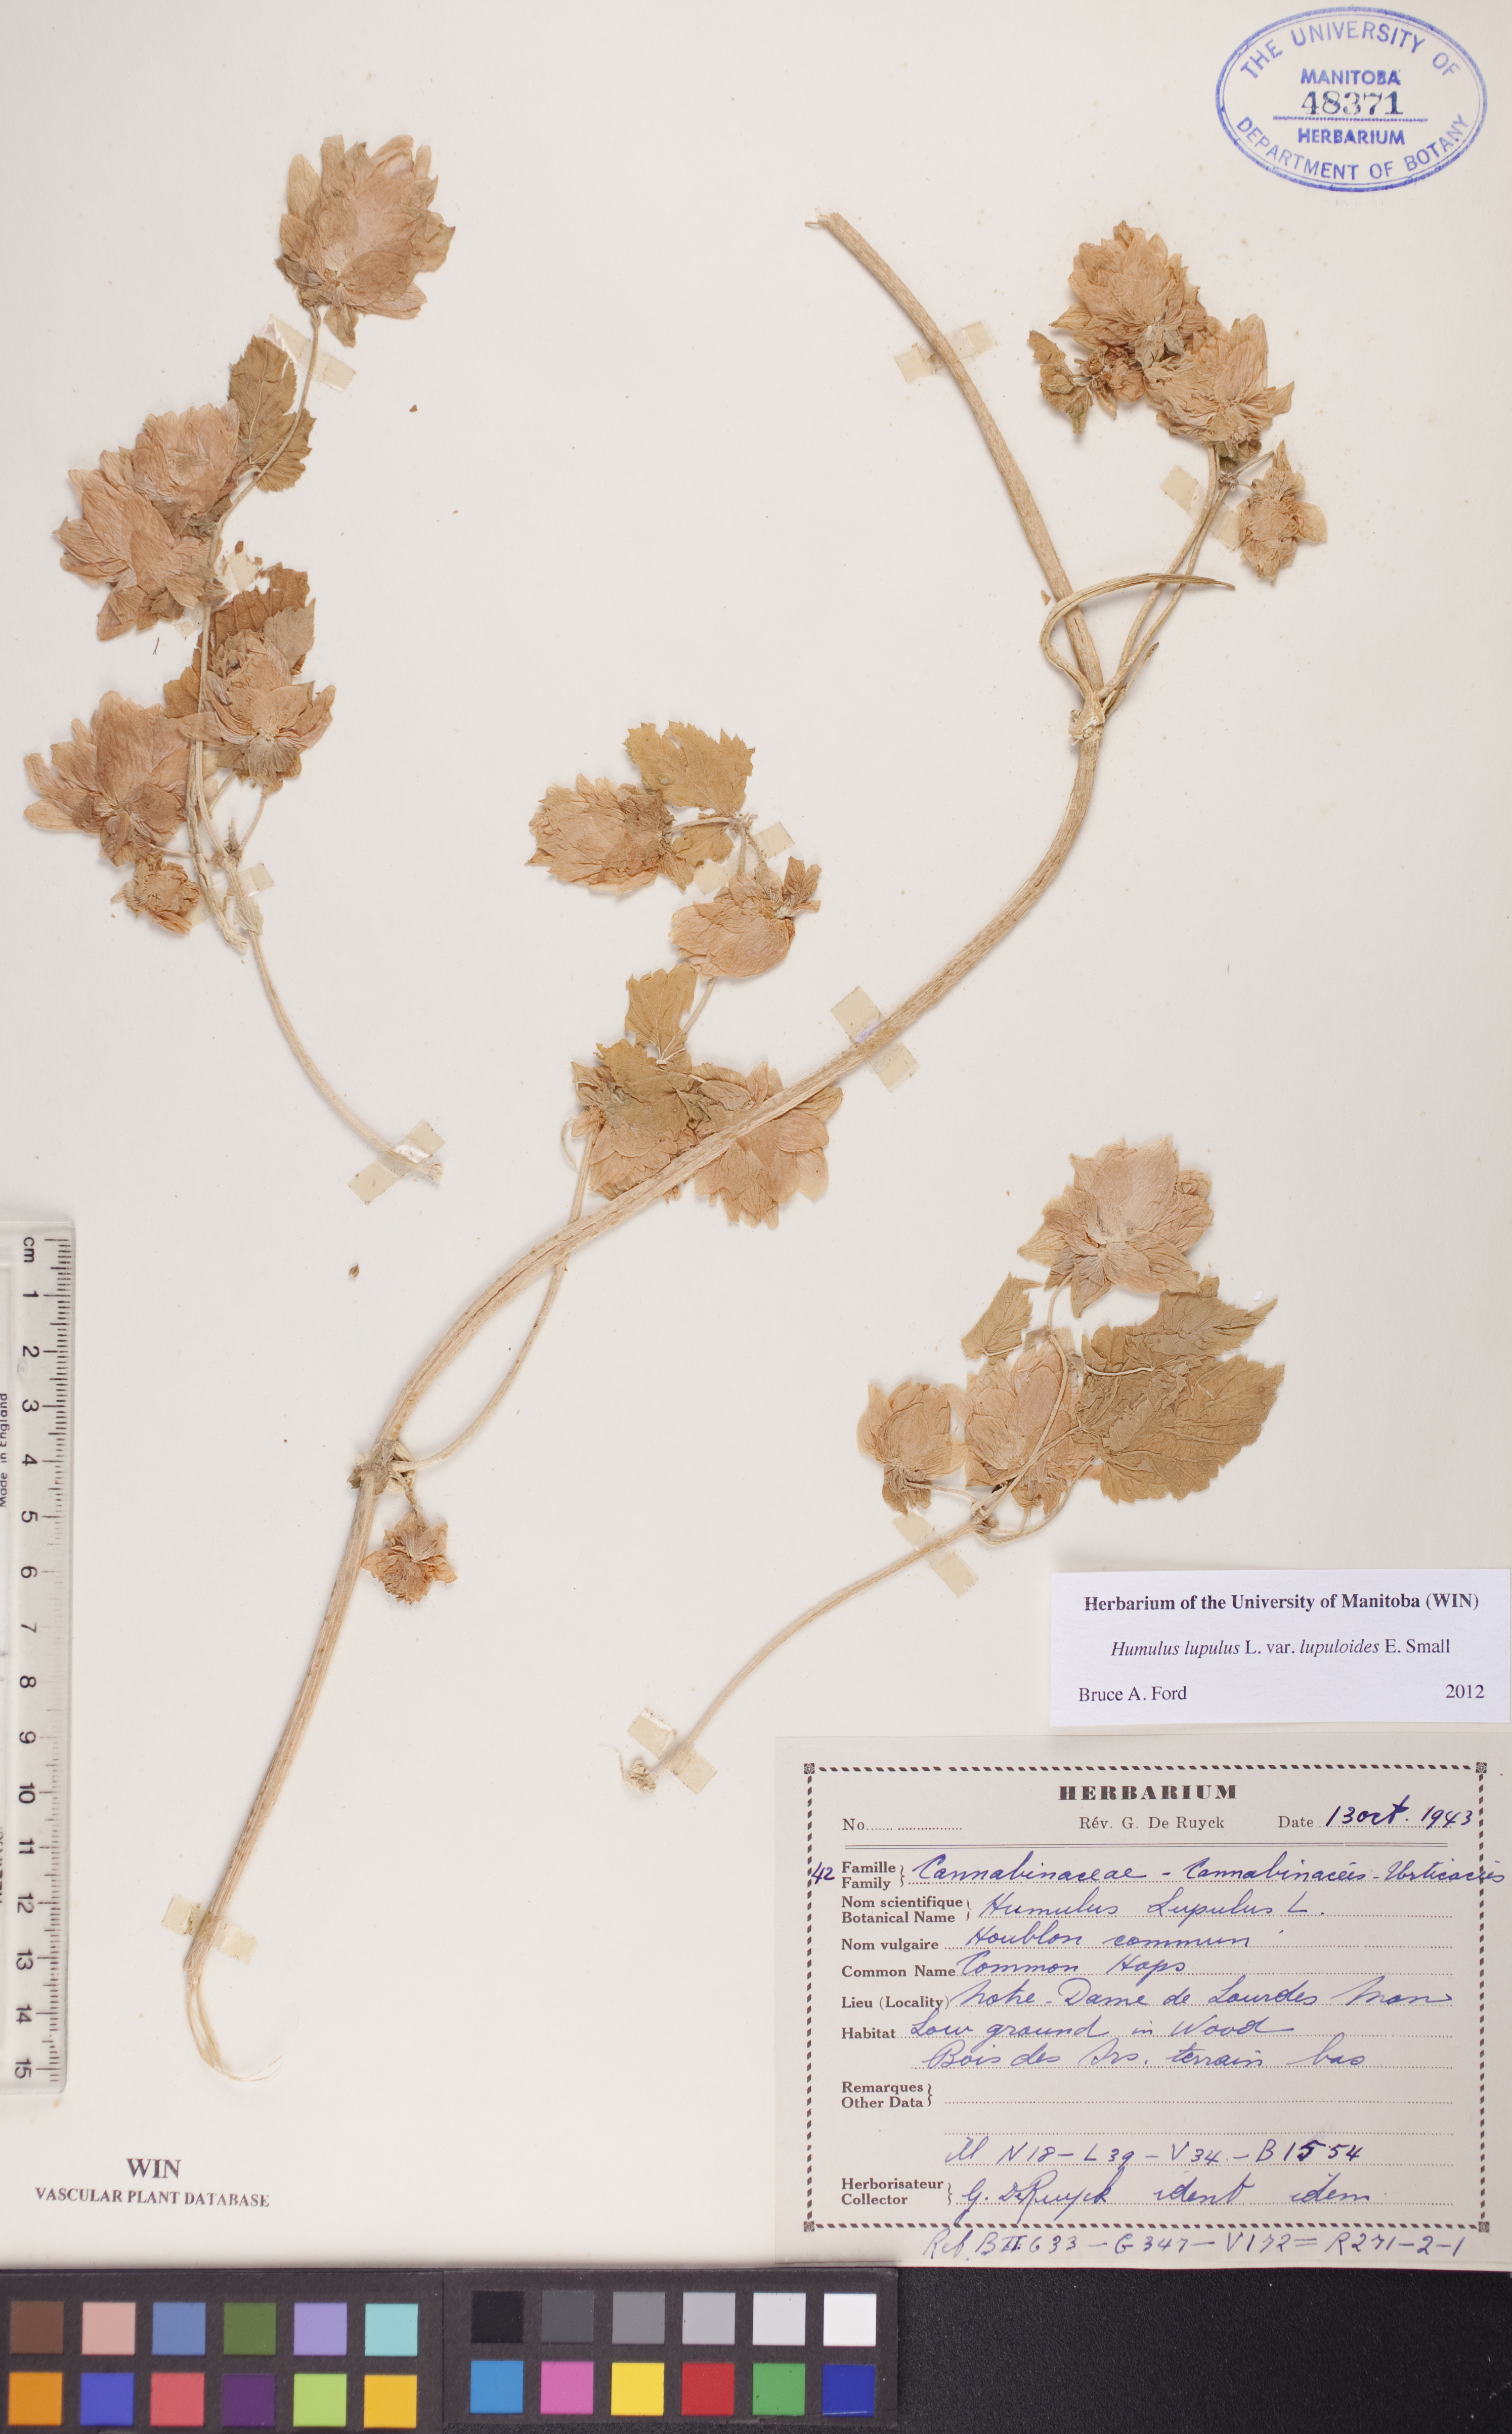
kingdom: Plantae
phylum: Tracheophyta
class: Magnoliopsida
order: Rosales
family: Cannabaceae
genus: Humulus
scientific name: Humulus americanus
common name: American hops
